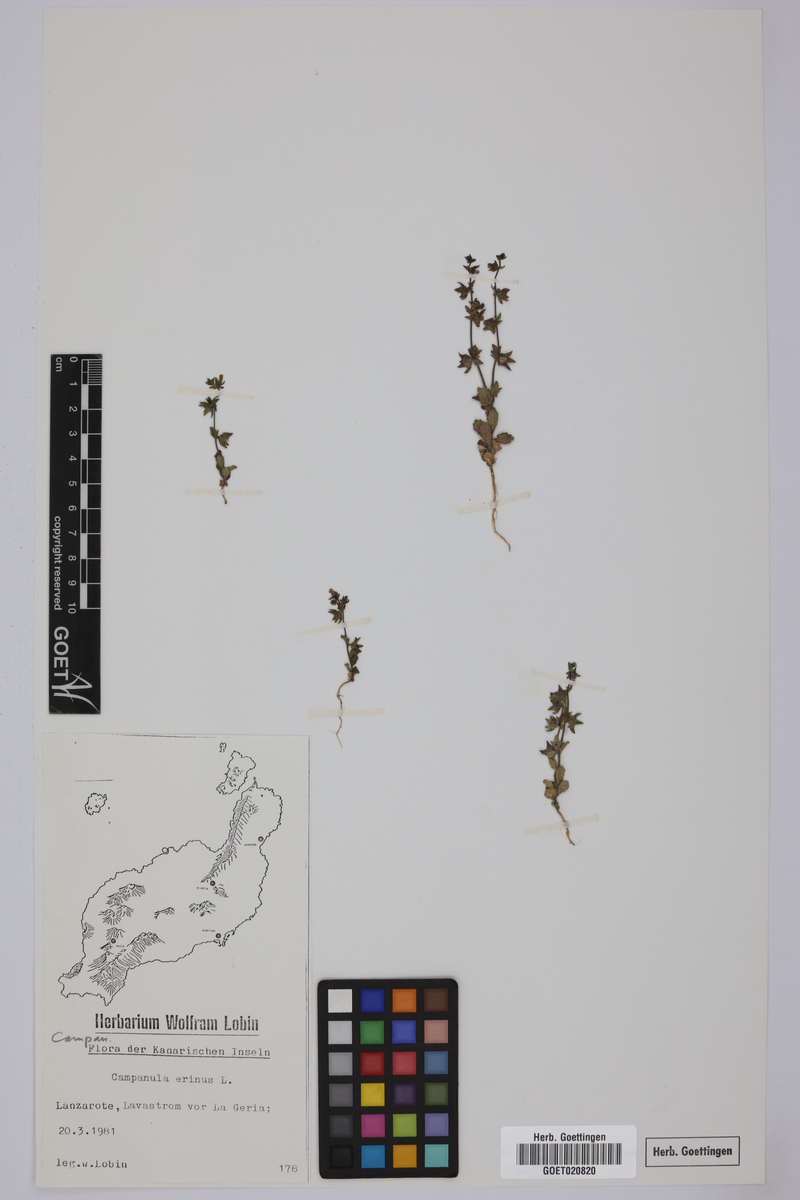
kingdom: Plantae
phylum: Tracheophyta
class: Magnoliopsida
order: Asterales
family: Campanulaceae
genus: Campanula
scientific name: Campanula erinus
